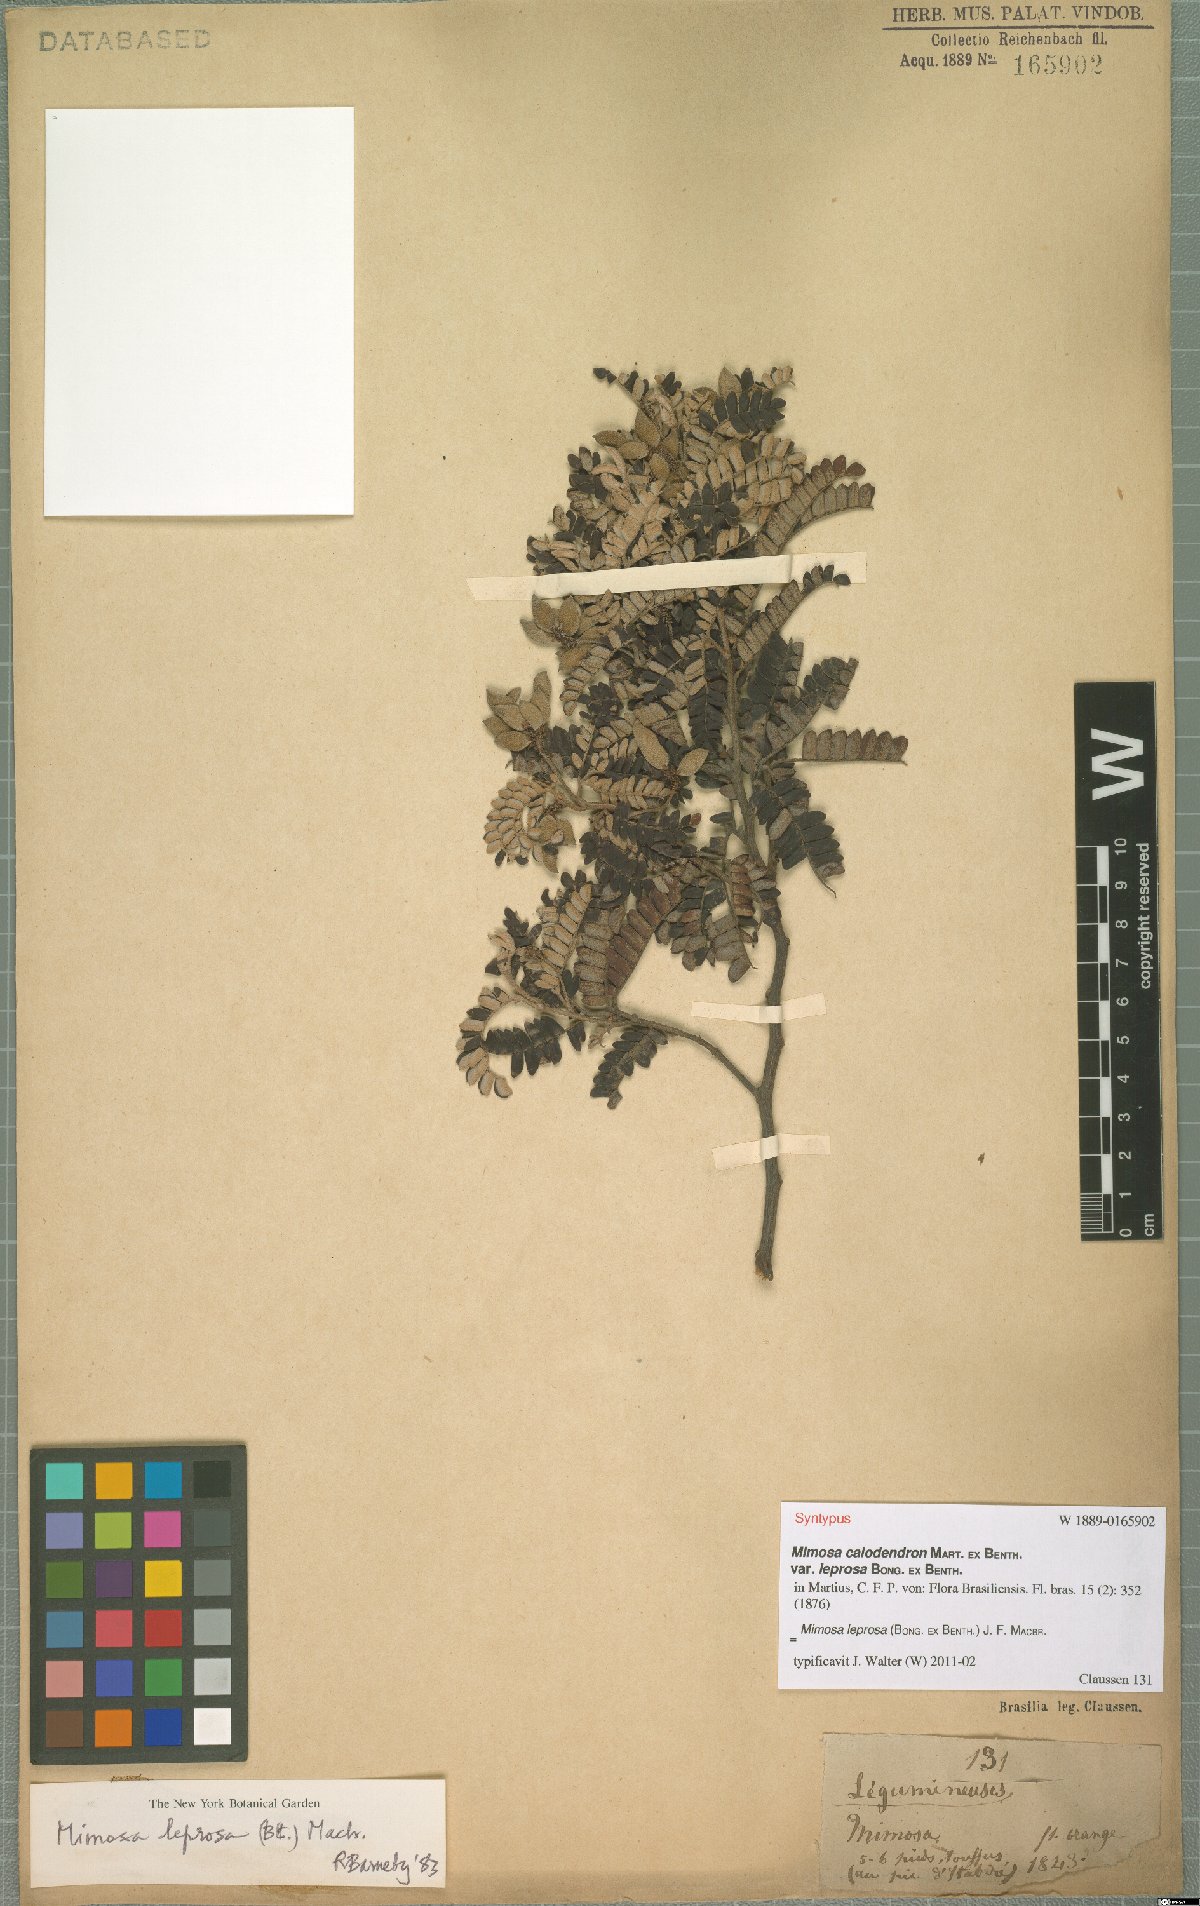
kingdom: Plantae
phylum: Tracheophyta
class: Magnoliopsida
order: Fabales
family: Fabaceae
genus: Mimosa
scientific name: Mimosa leprosa
